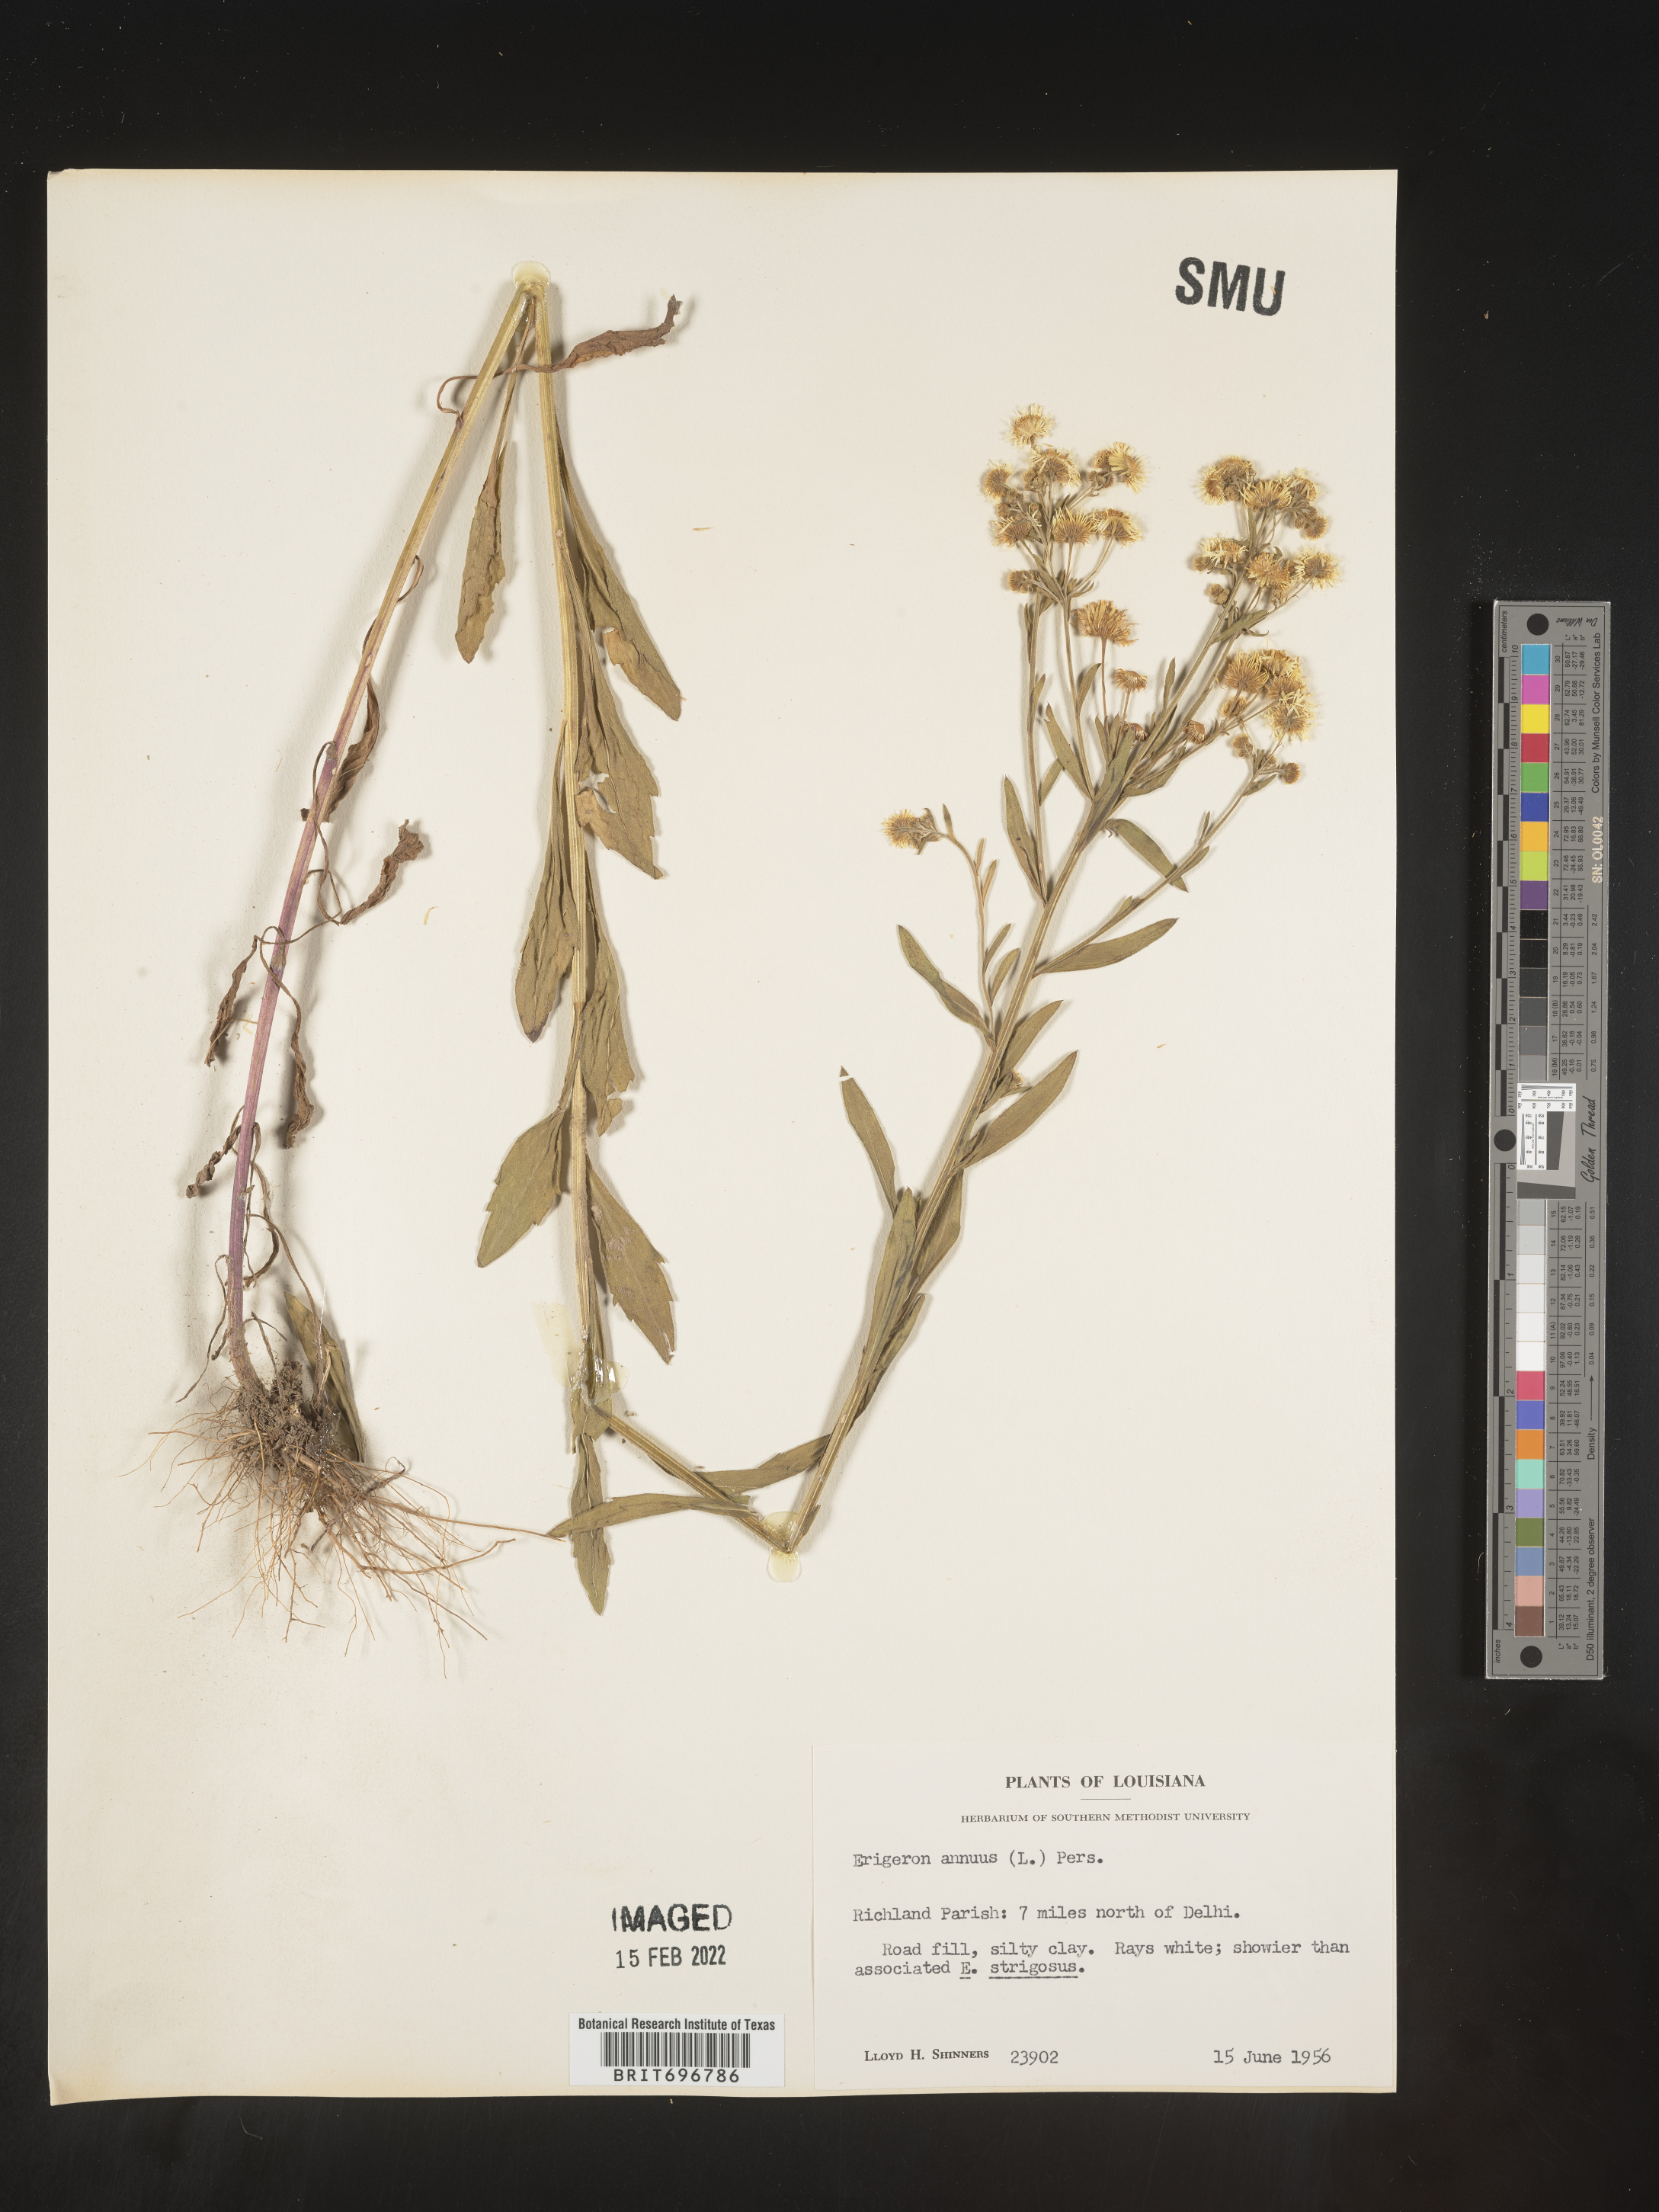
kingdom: Plantae
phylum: Tracheophyta
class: Magnoliopsida
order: Asterales
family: Asteraceae
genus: Erigeron
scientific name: Erigeron annuus
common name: Tall fleabane
